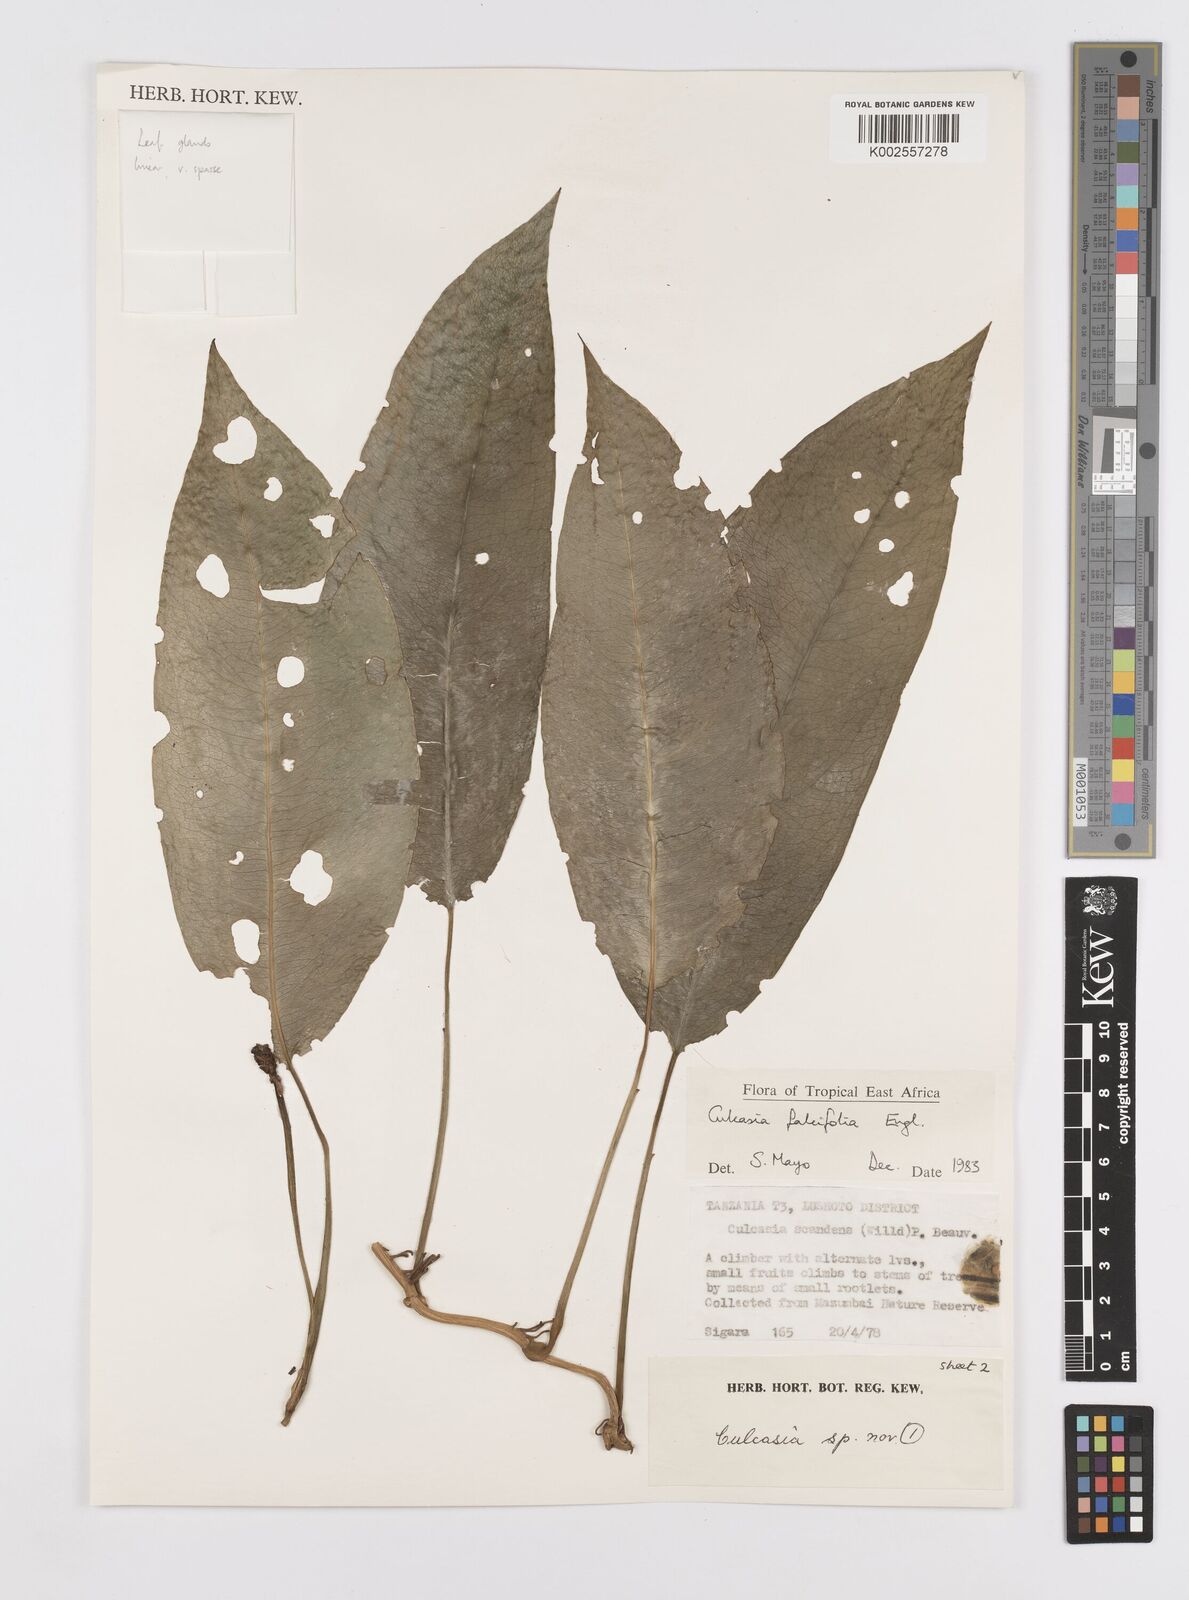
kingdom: Plantae
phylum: Tracheophyta
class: Liliopsida
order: Alismatales
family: Araceae
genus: Culcasia
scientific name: Culcasia falcifolia
